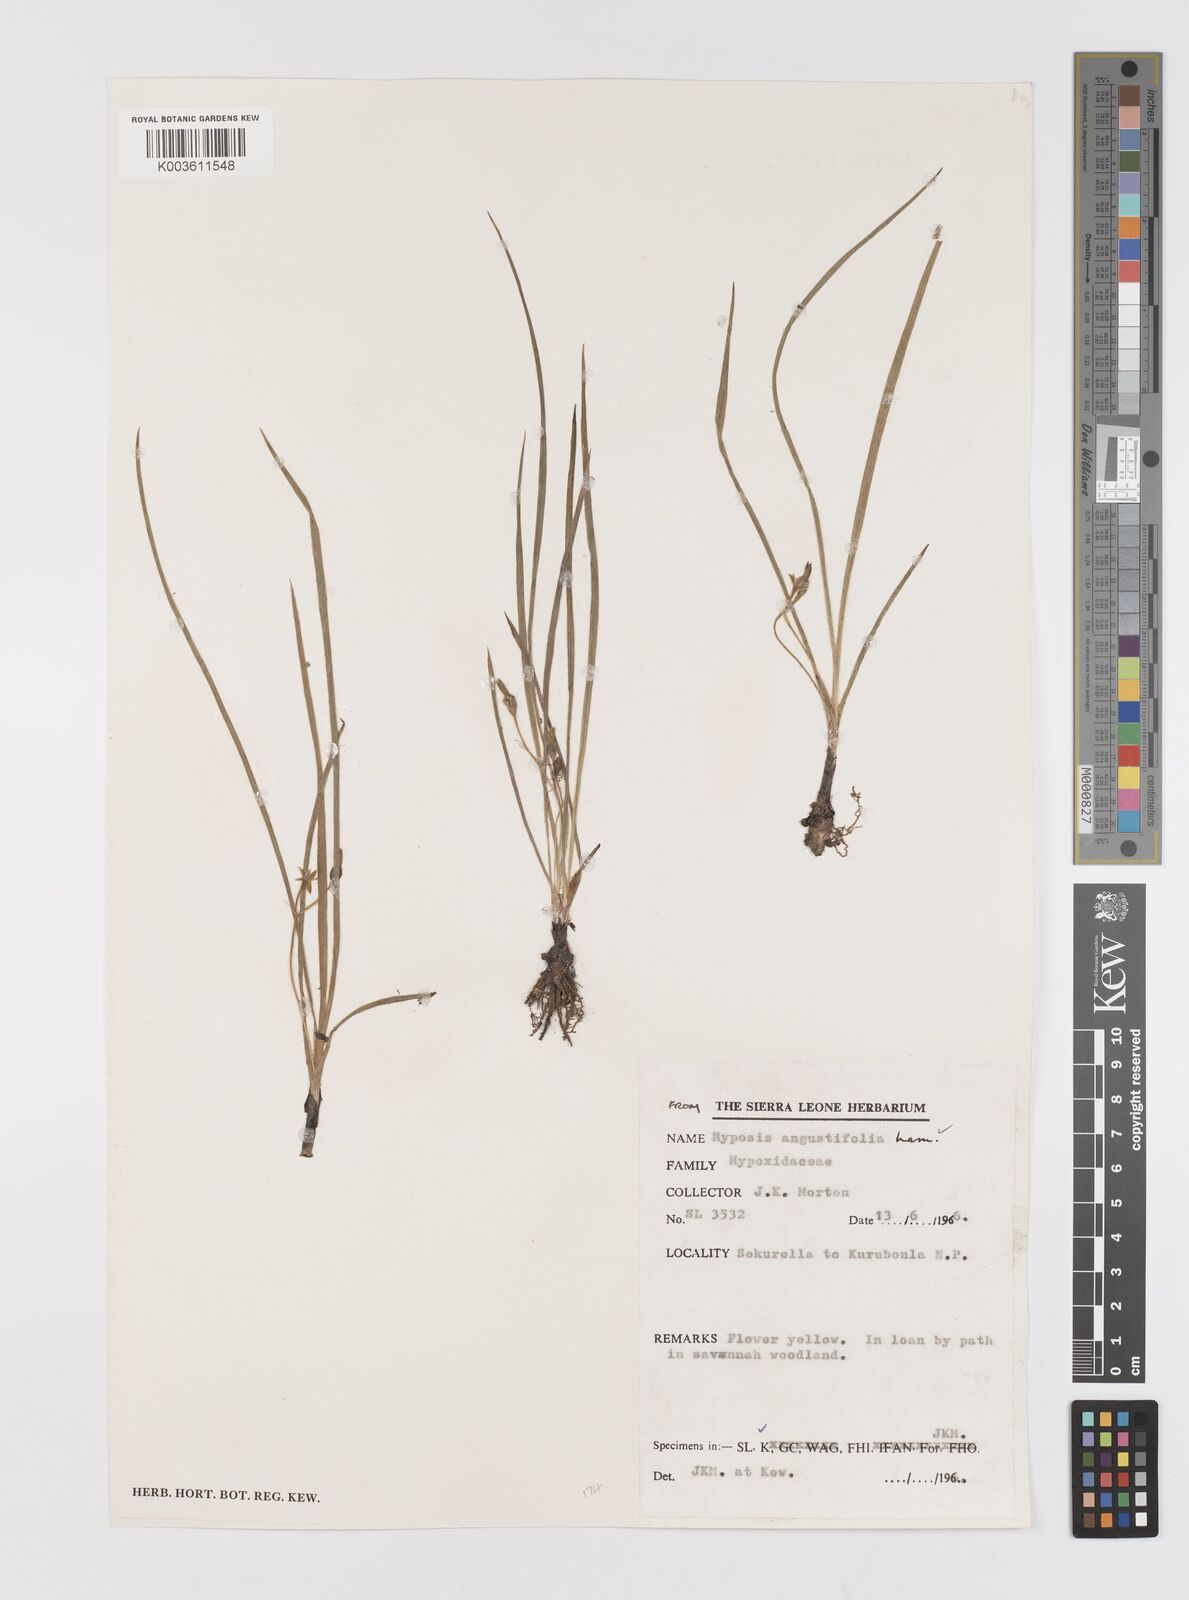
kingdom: Plantae
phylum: Tracheophyta
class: Liliopsida
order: Asparagales
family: Hypoxidaceae
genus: Hypoxis
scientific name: Hypoxis angustifolia
